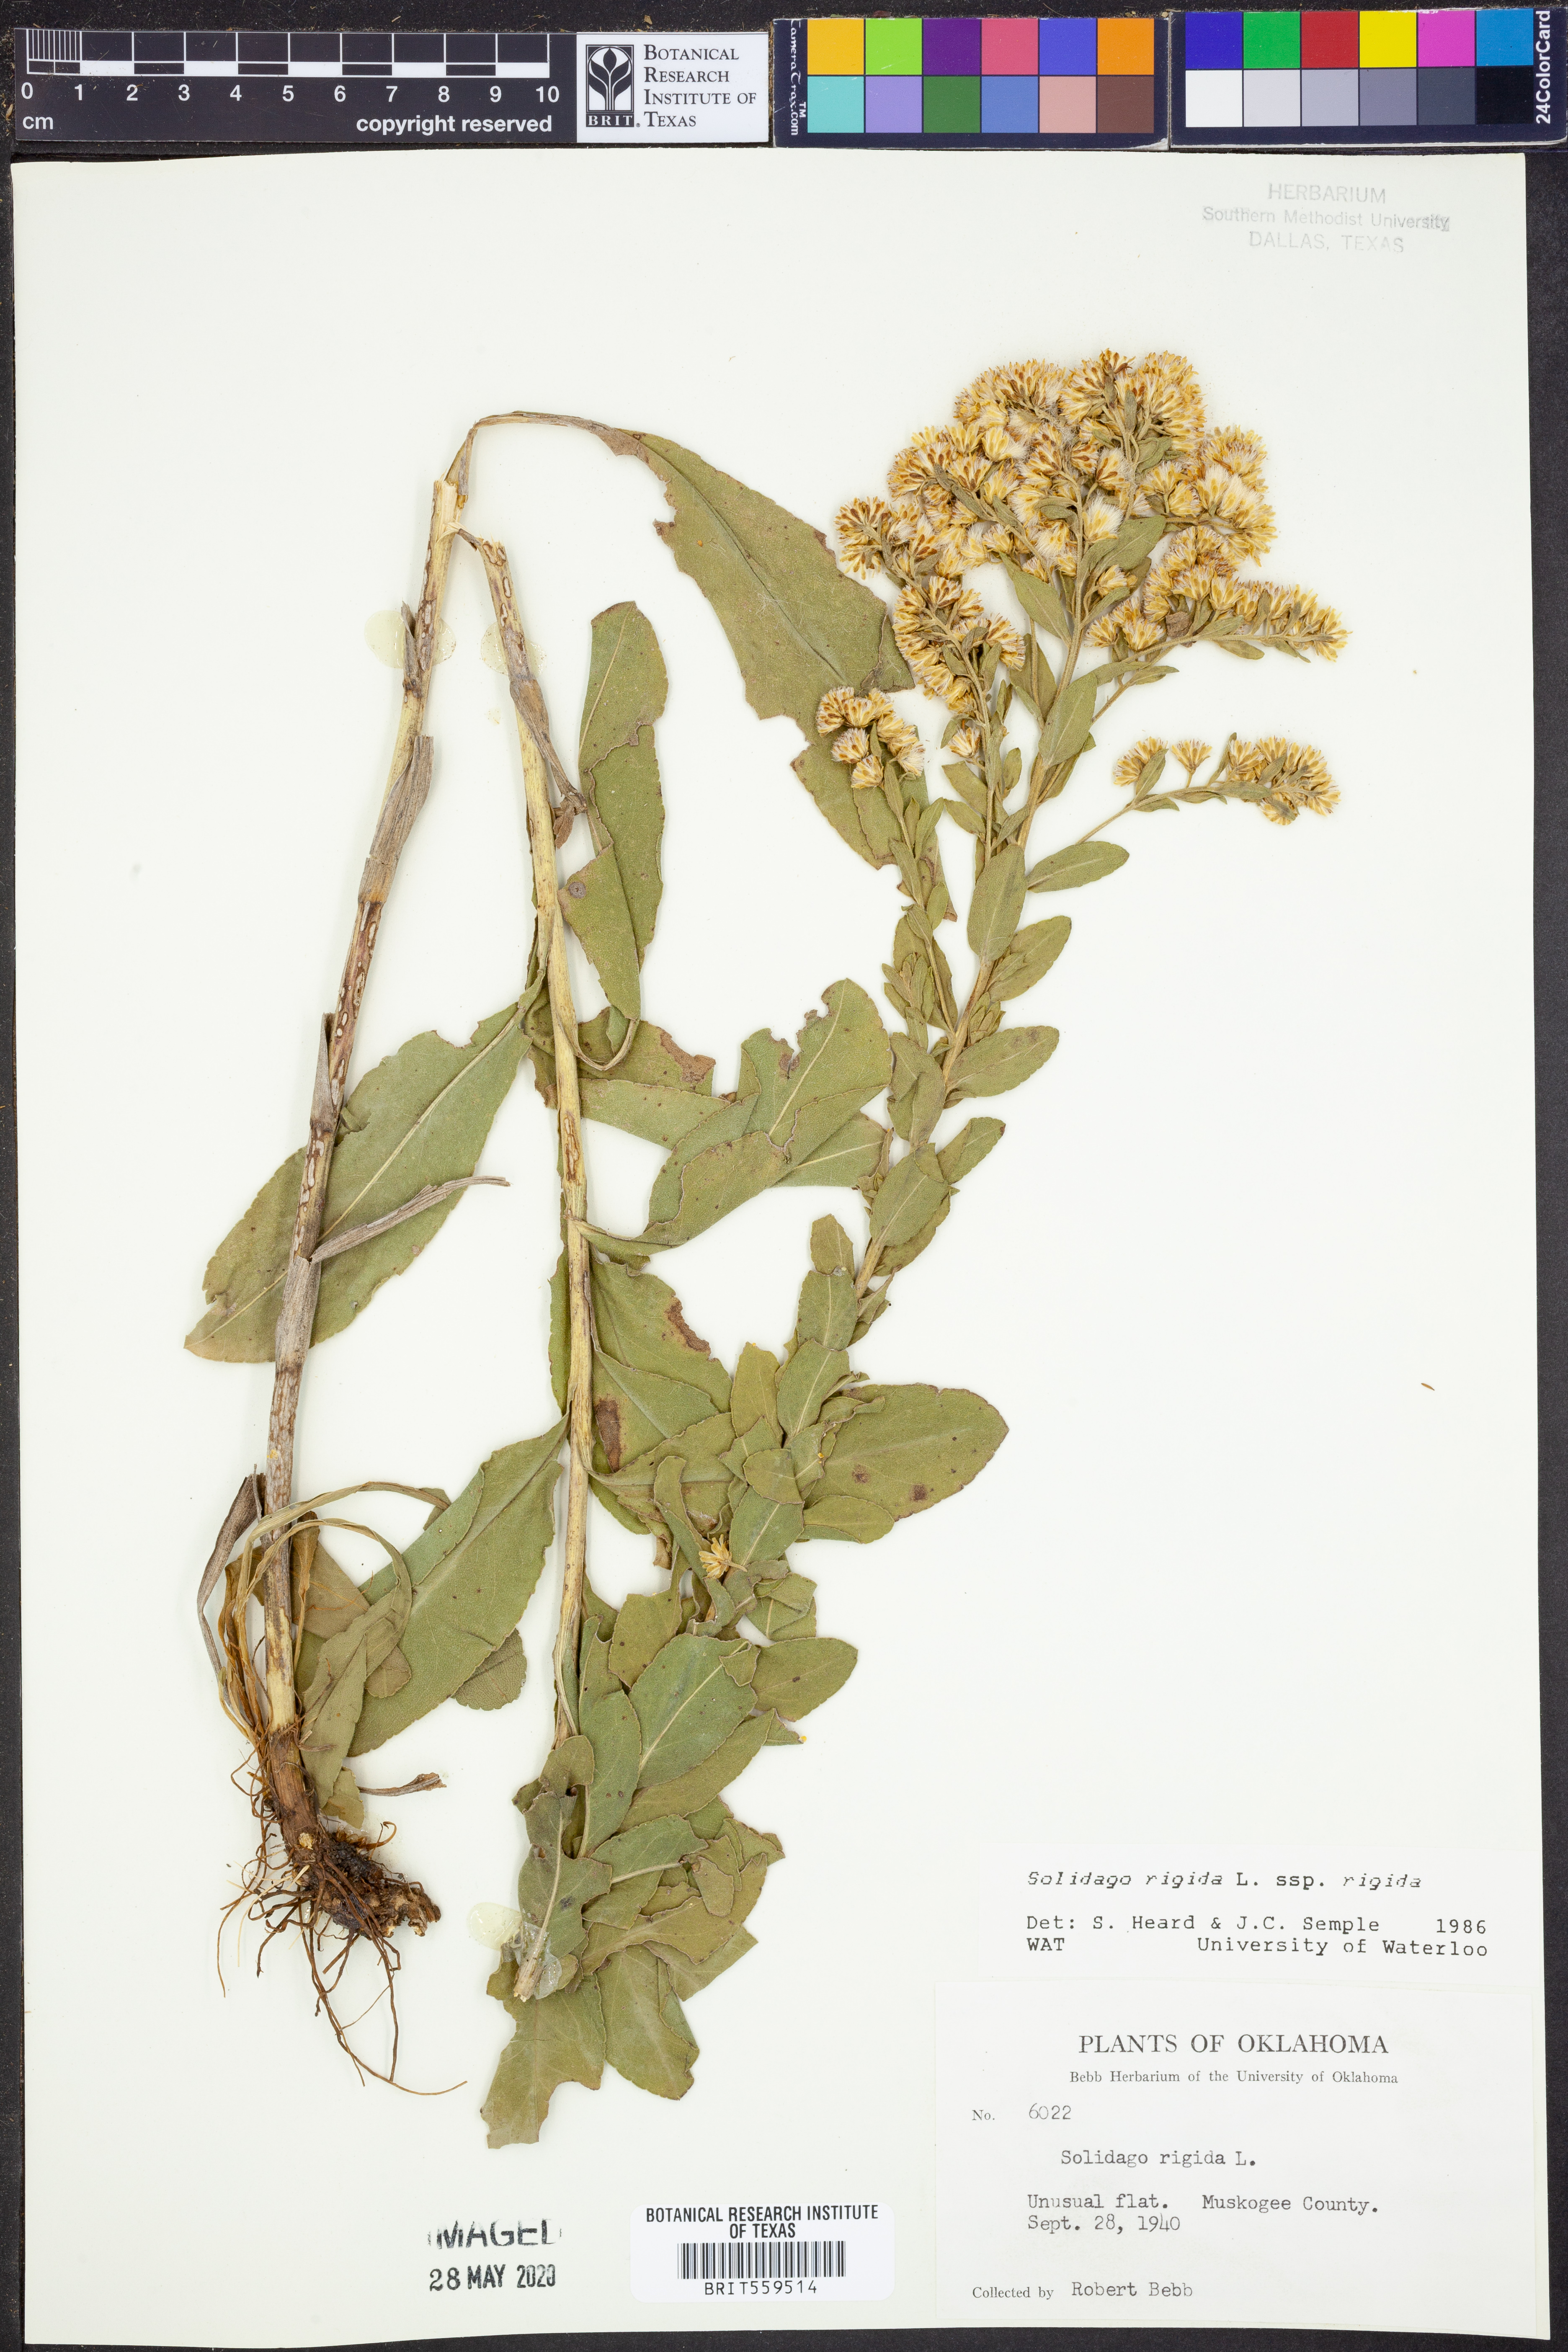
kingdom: Plantae
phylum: Tracheophyta
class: Magnoliopsida
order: Asterales
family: Asteraceae
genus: Solidago
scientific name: Solidago rigida
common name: Rigid goldenrod
